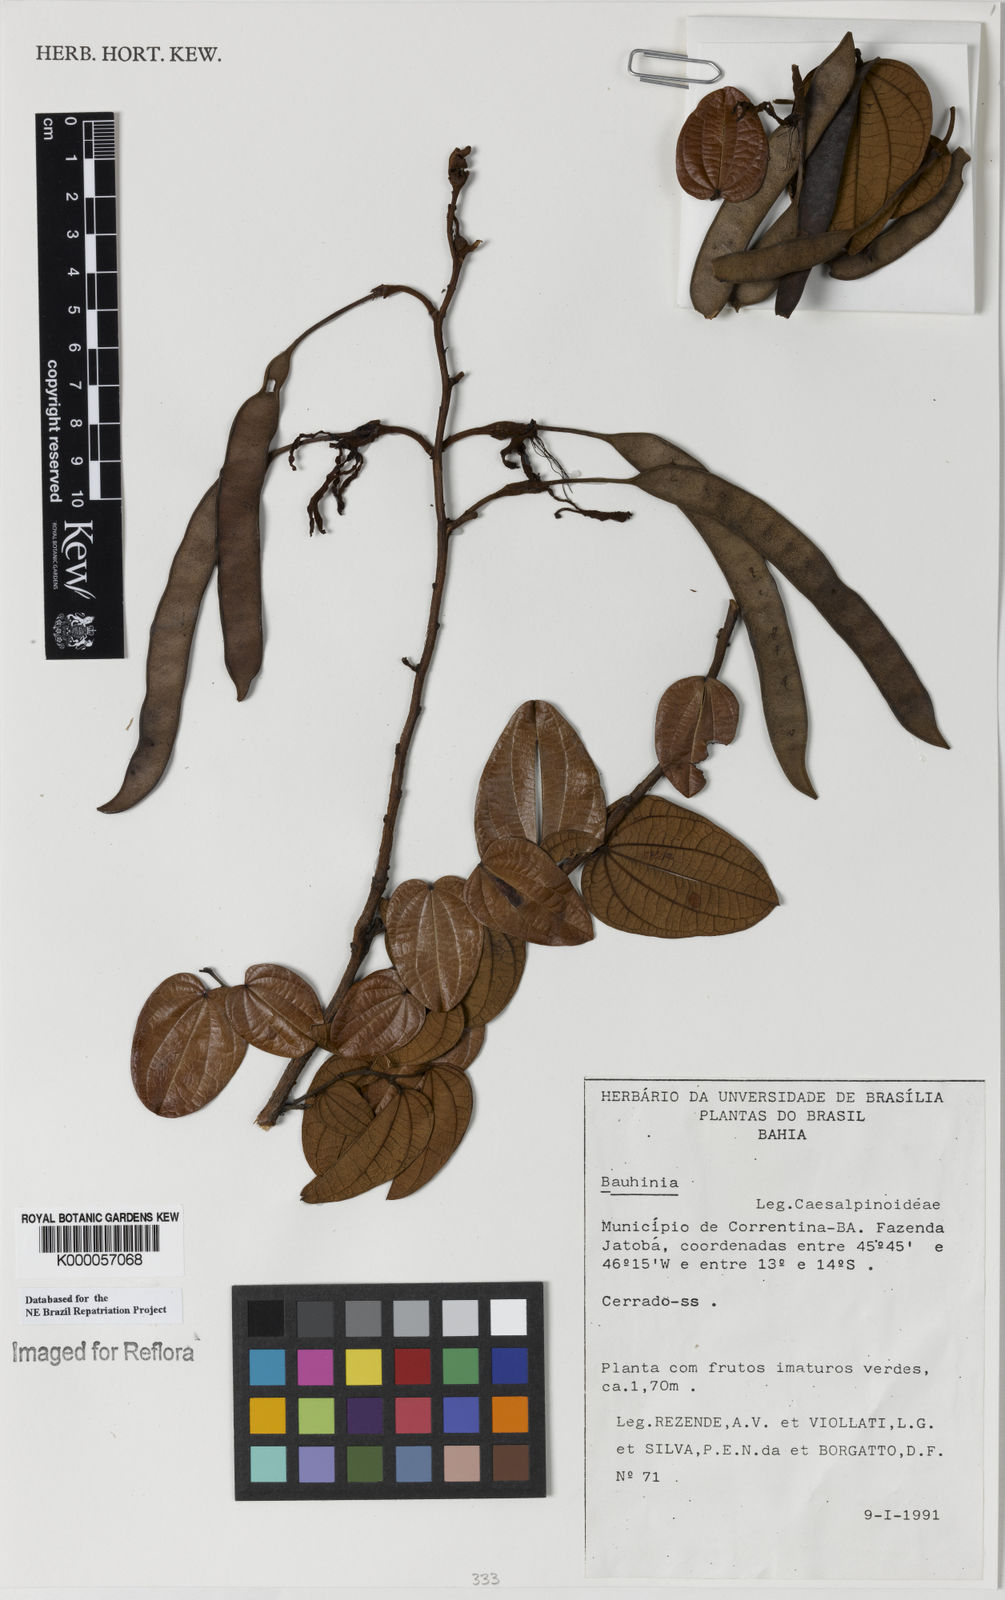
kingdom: Plantae
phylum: Tracheophyta
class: Magnoliopsida
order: Fabales
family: Fabaceae
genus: Bauhinia
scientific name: Bauhinia
